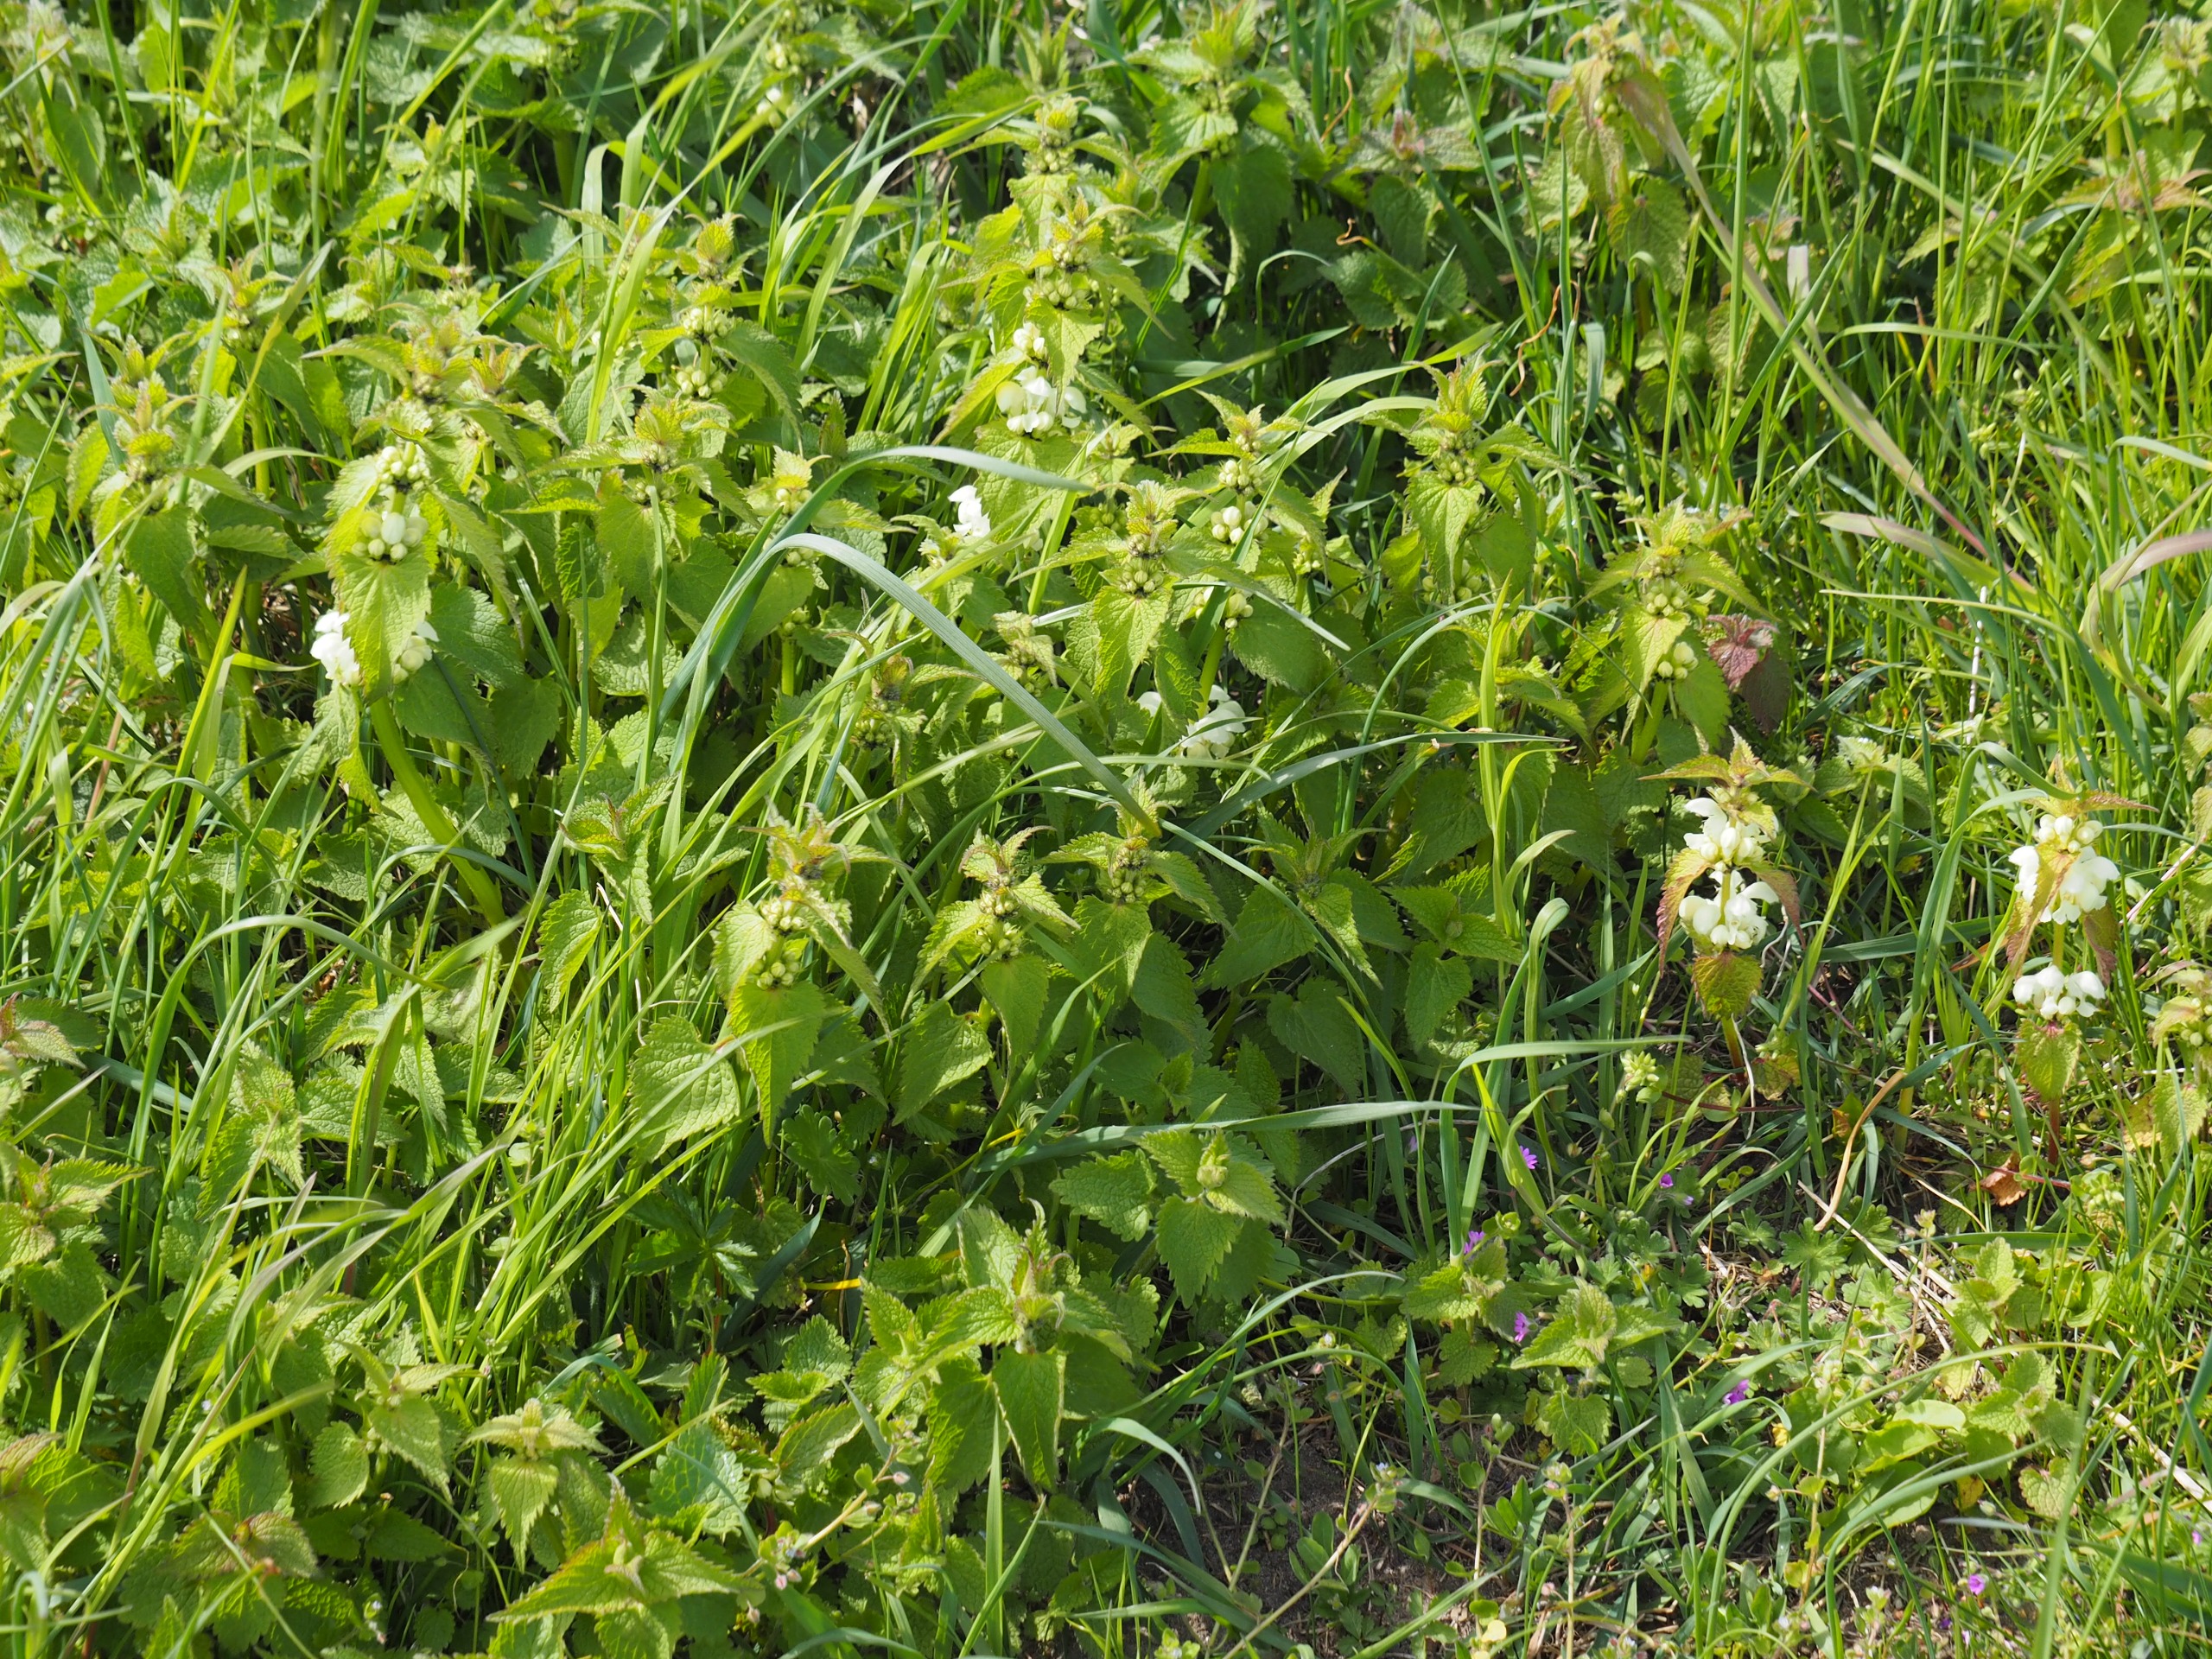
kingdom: Plantae
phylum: Tracheophyta
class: Magnoliopsida
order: Lamiales
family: Lamiaceae
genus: Lamium
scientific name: Lamium album
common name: Døvnælde
